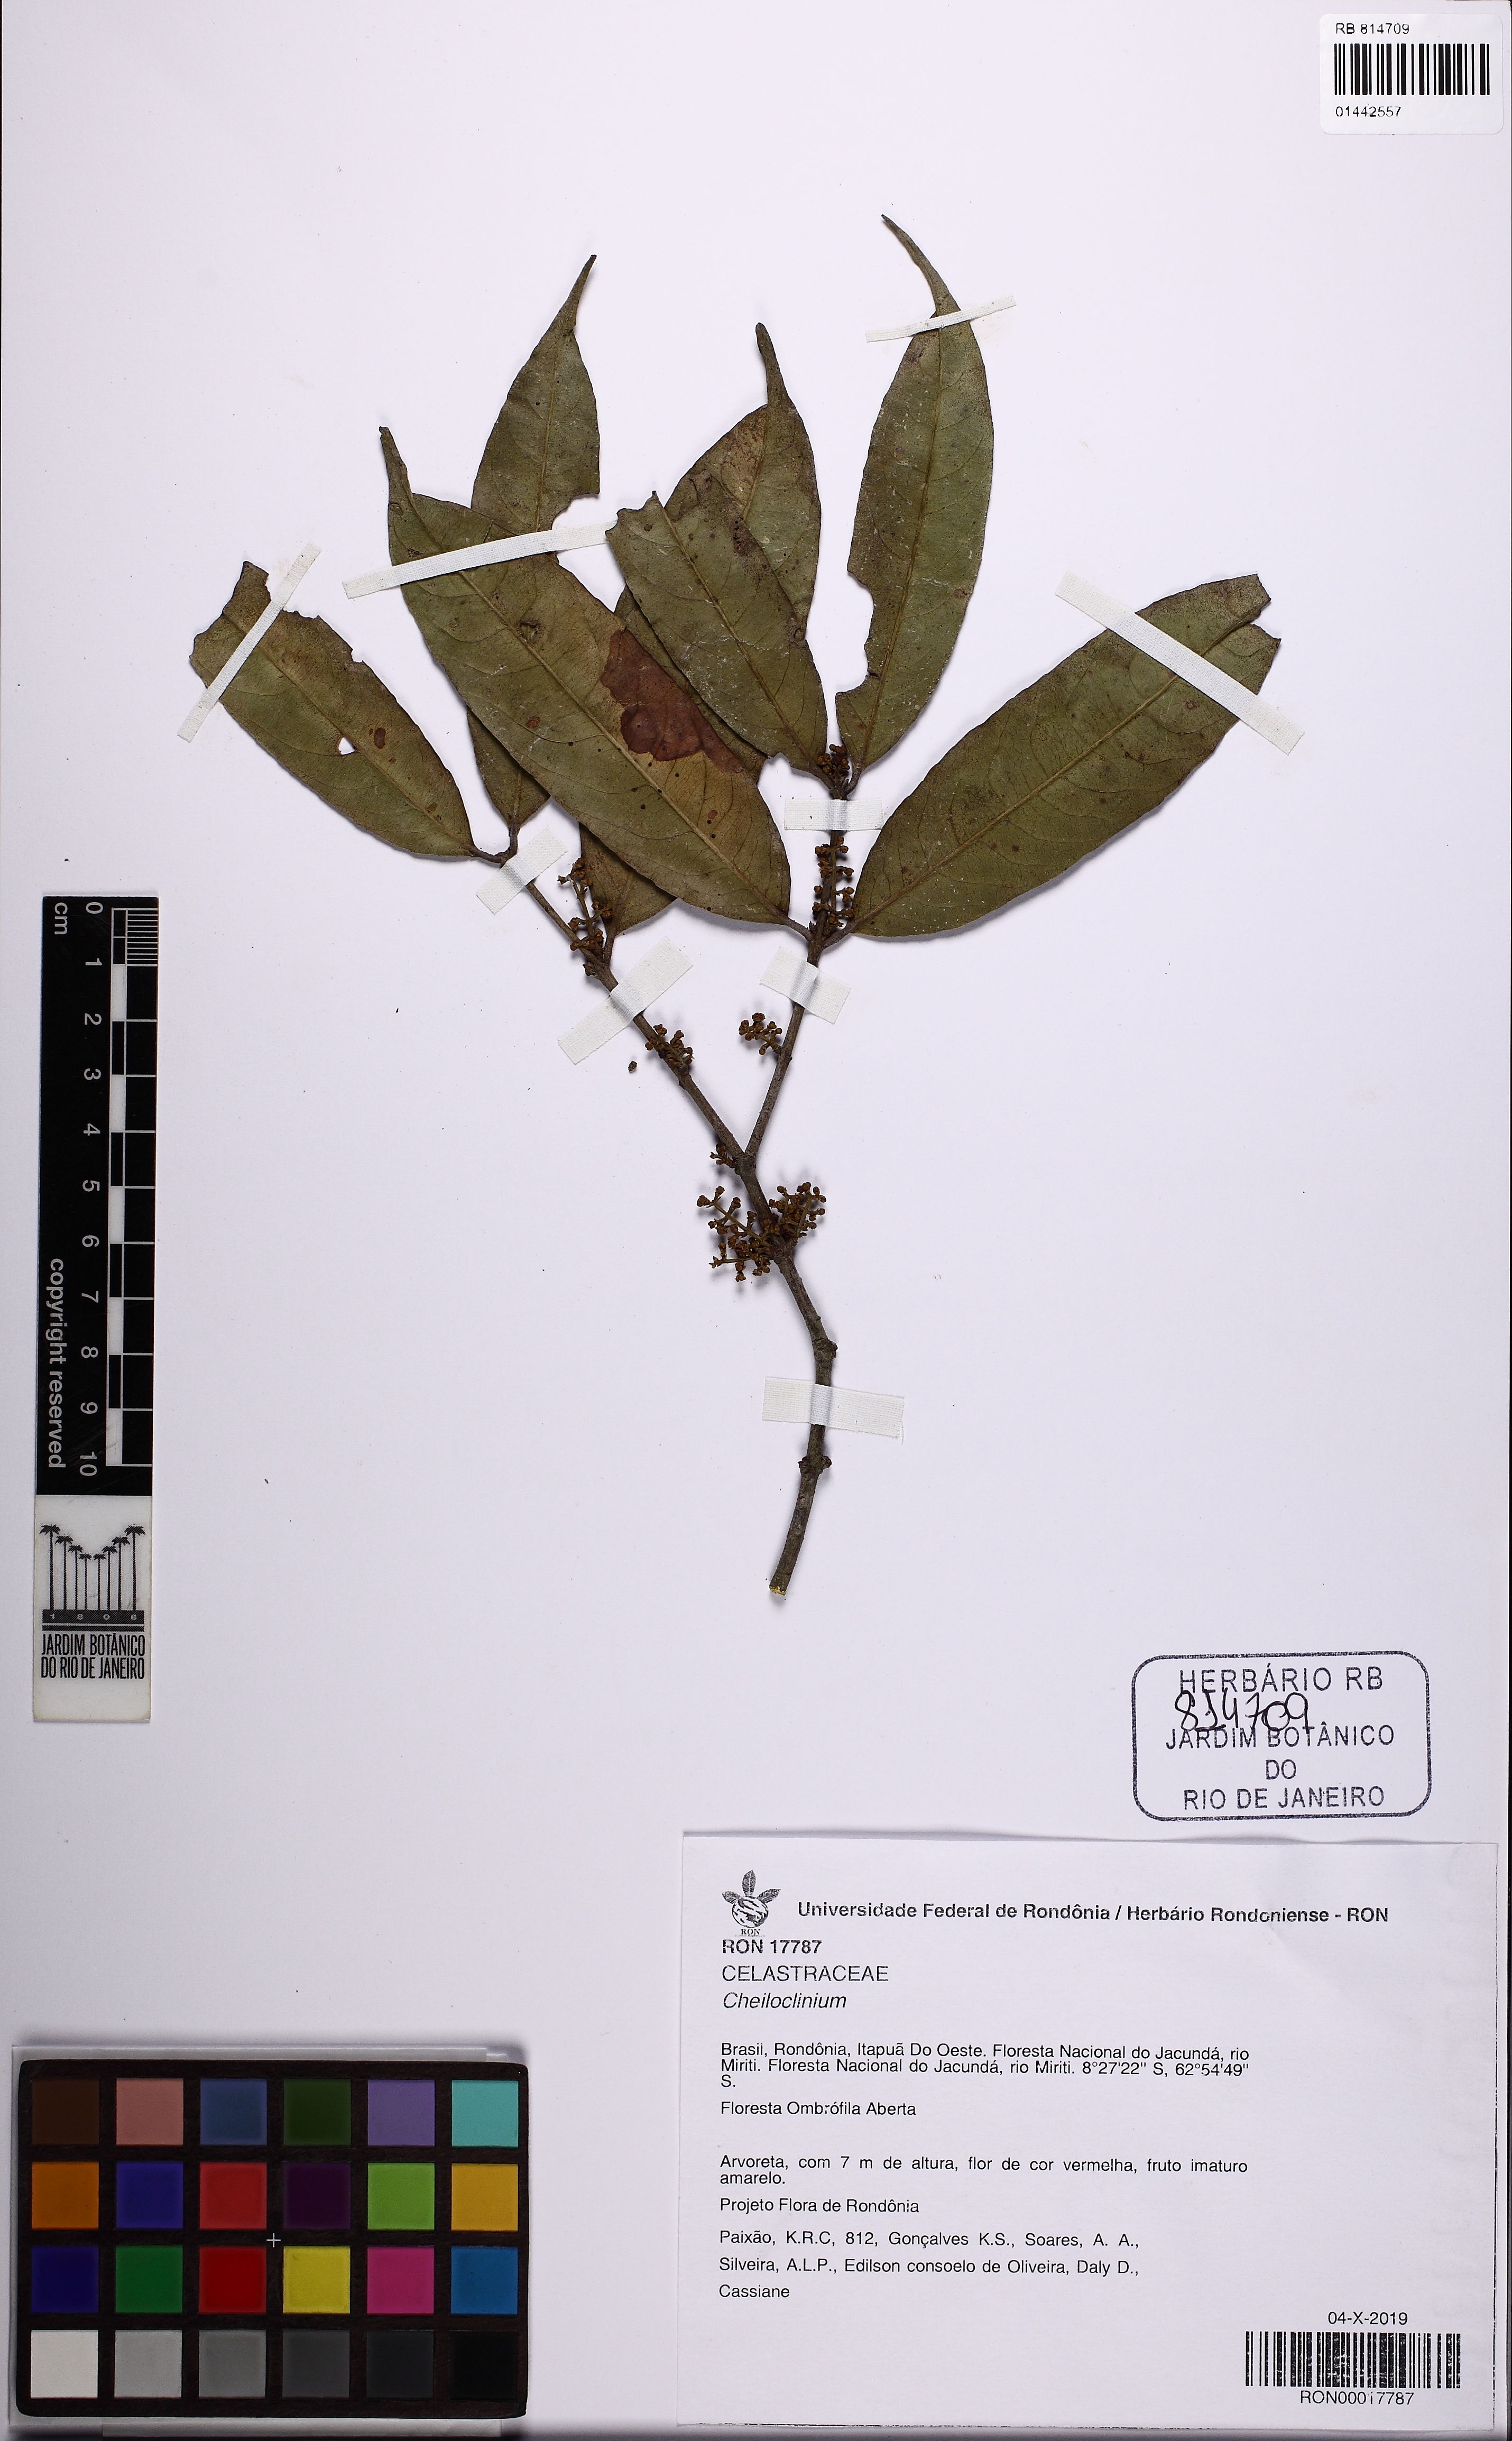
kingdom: Plantae
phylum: Tracheophyta
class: Magnoliopsida
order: Celastrales
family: Celastraceae
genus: Cheiloclinium
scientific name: Cheiloclinium
